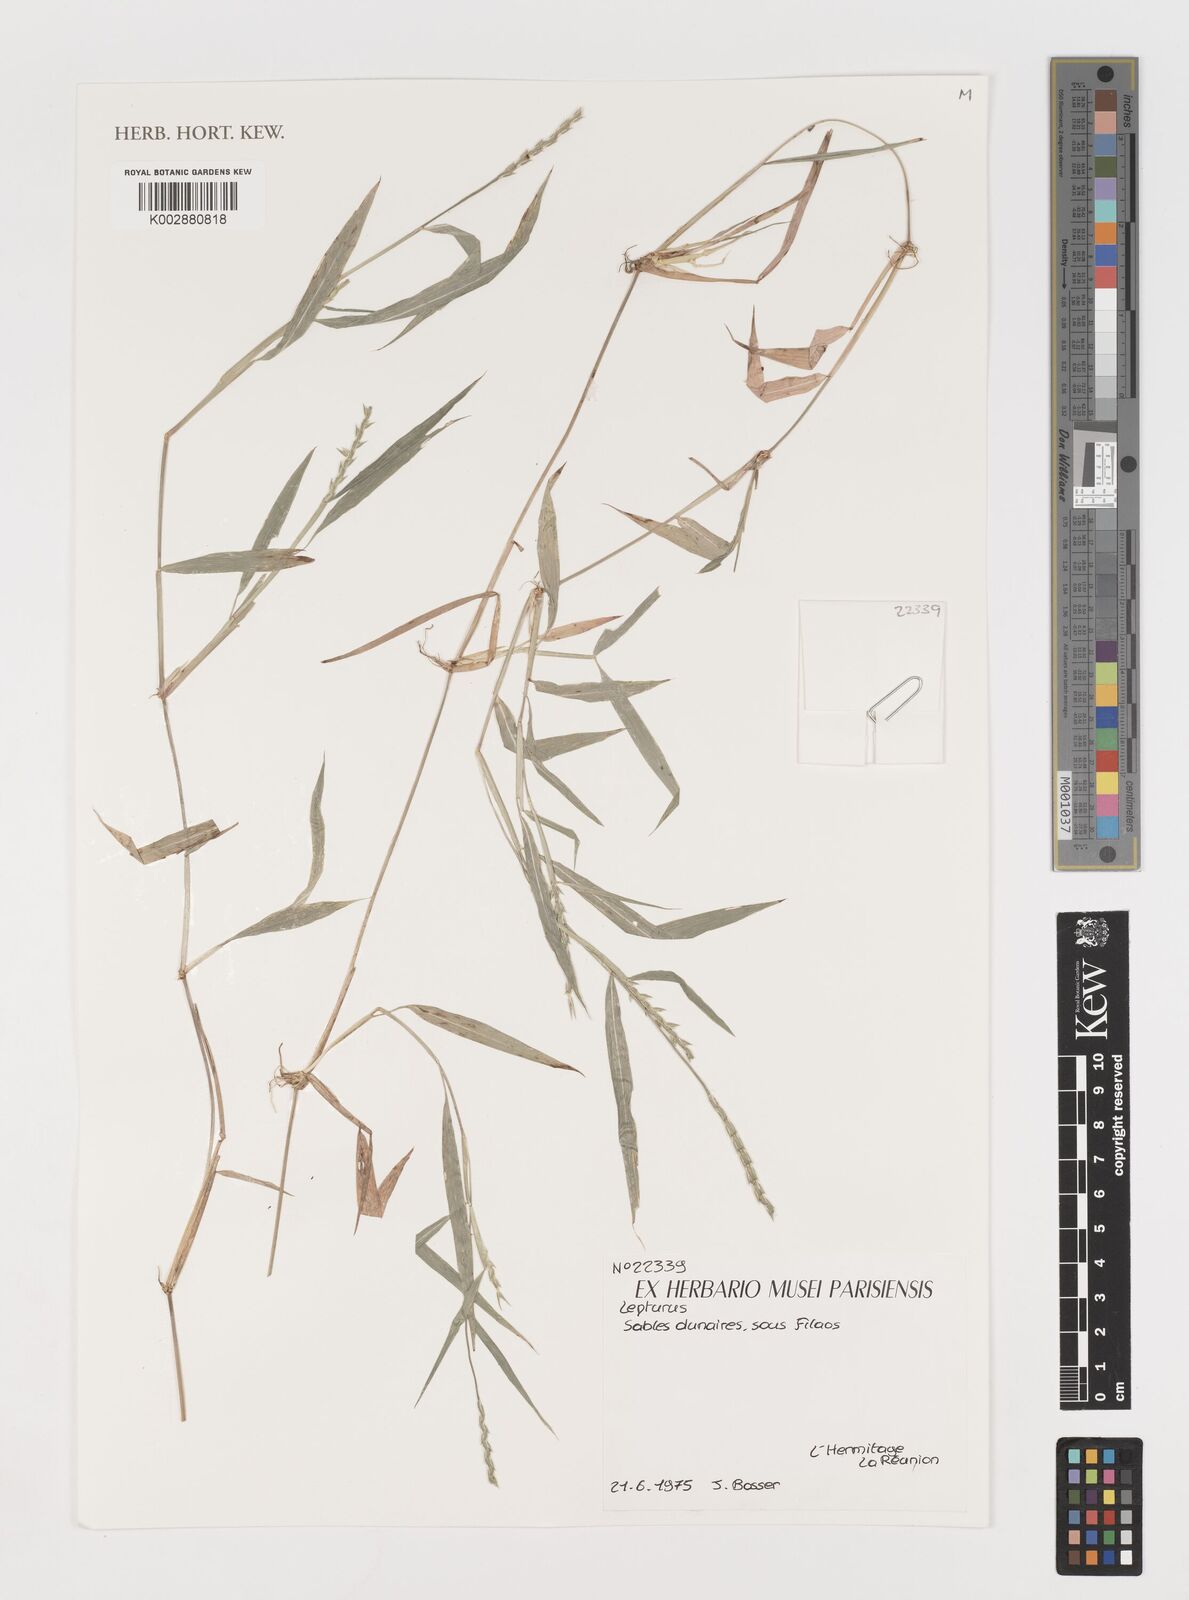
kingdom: Plantae
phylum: Tracheophyta
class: Liliopsida
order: Poales
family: Poaceae
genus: Lepturus
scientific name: Lepturus
